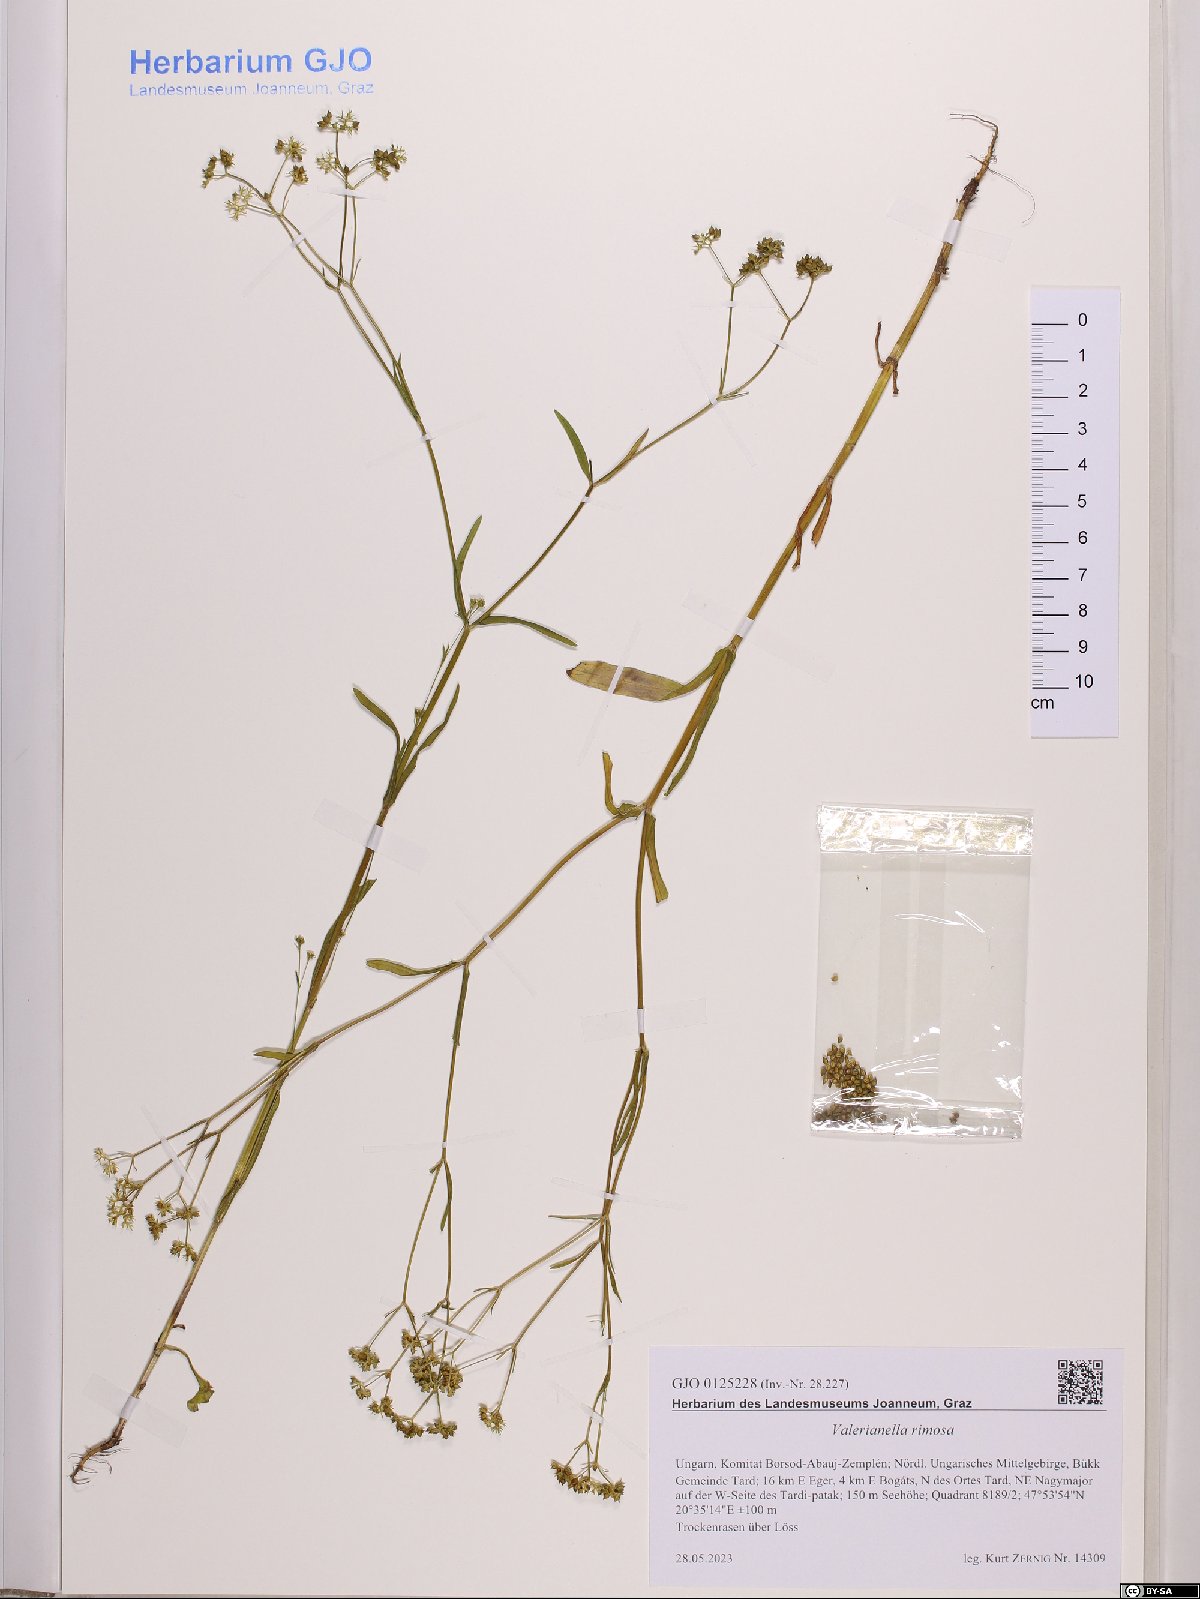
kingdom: Plantae
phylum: Tracheophyta
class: Magnoliopsida
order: Dipsacales
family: Caprifoliaceae
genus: Valerianella
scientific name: Valerianella rimosa
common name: Broad-fruited cornsalad
